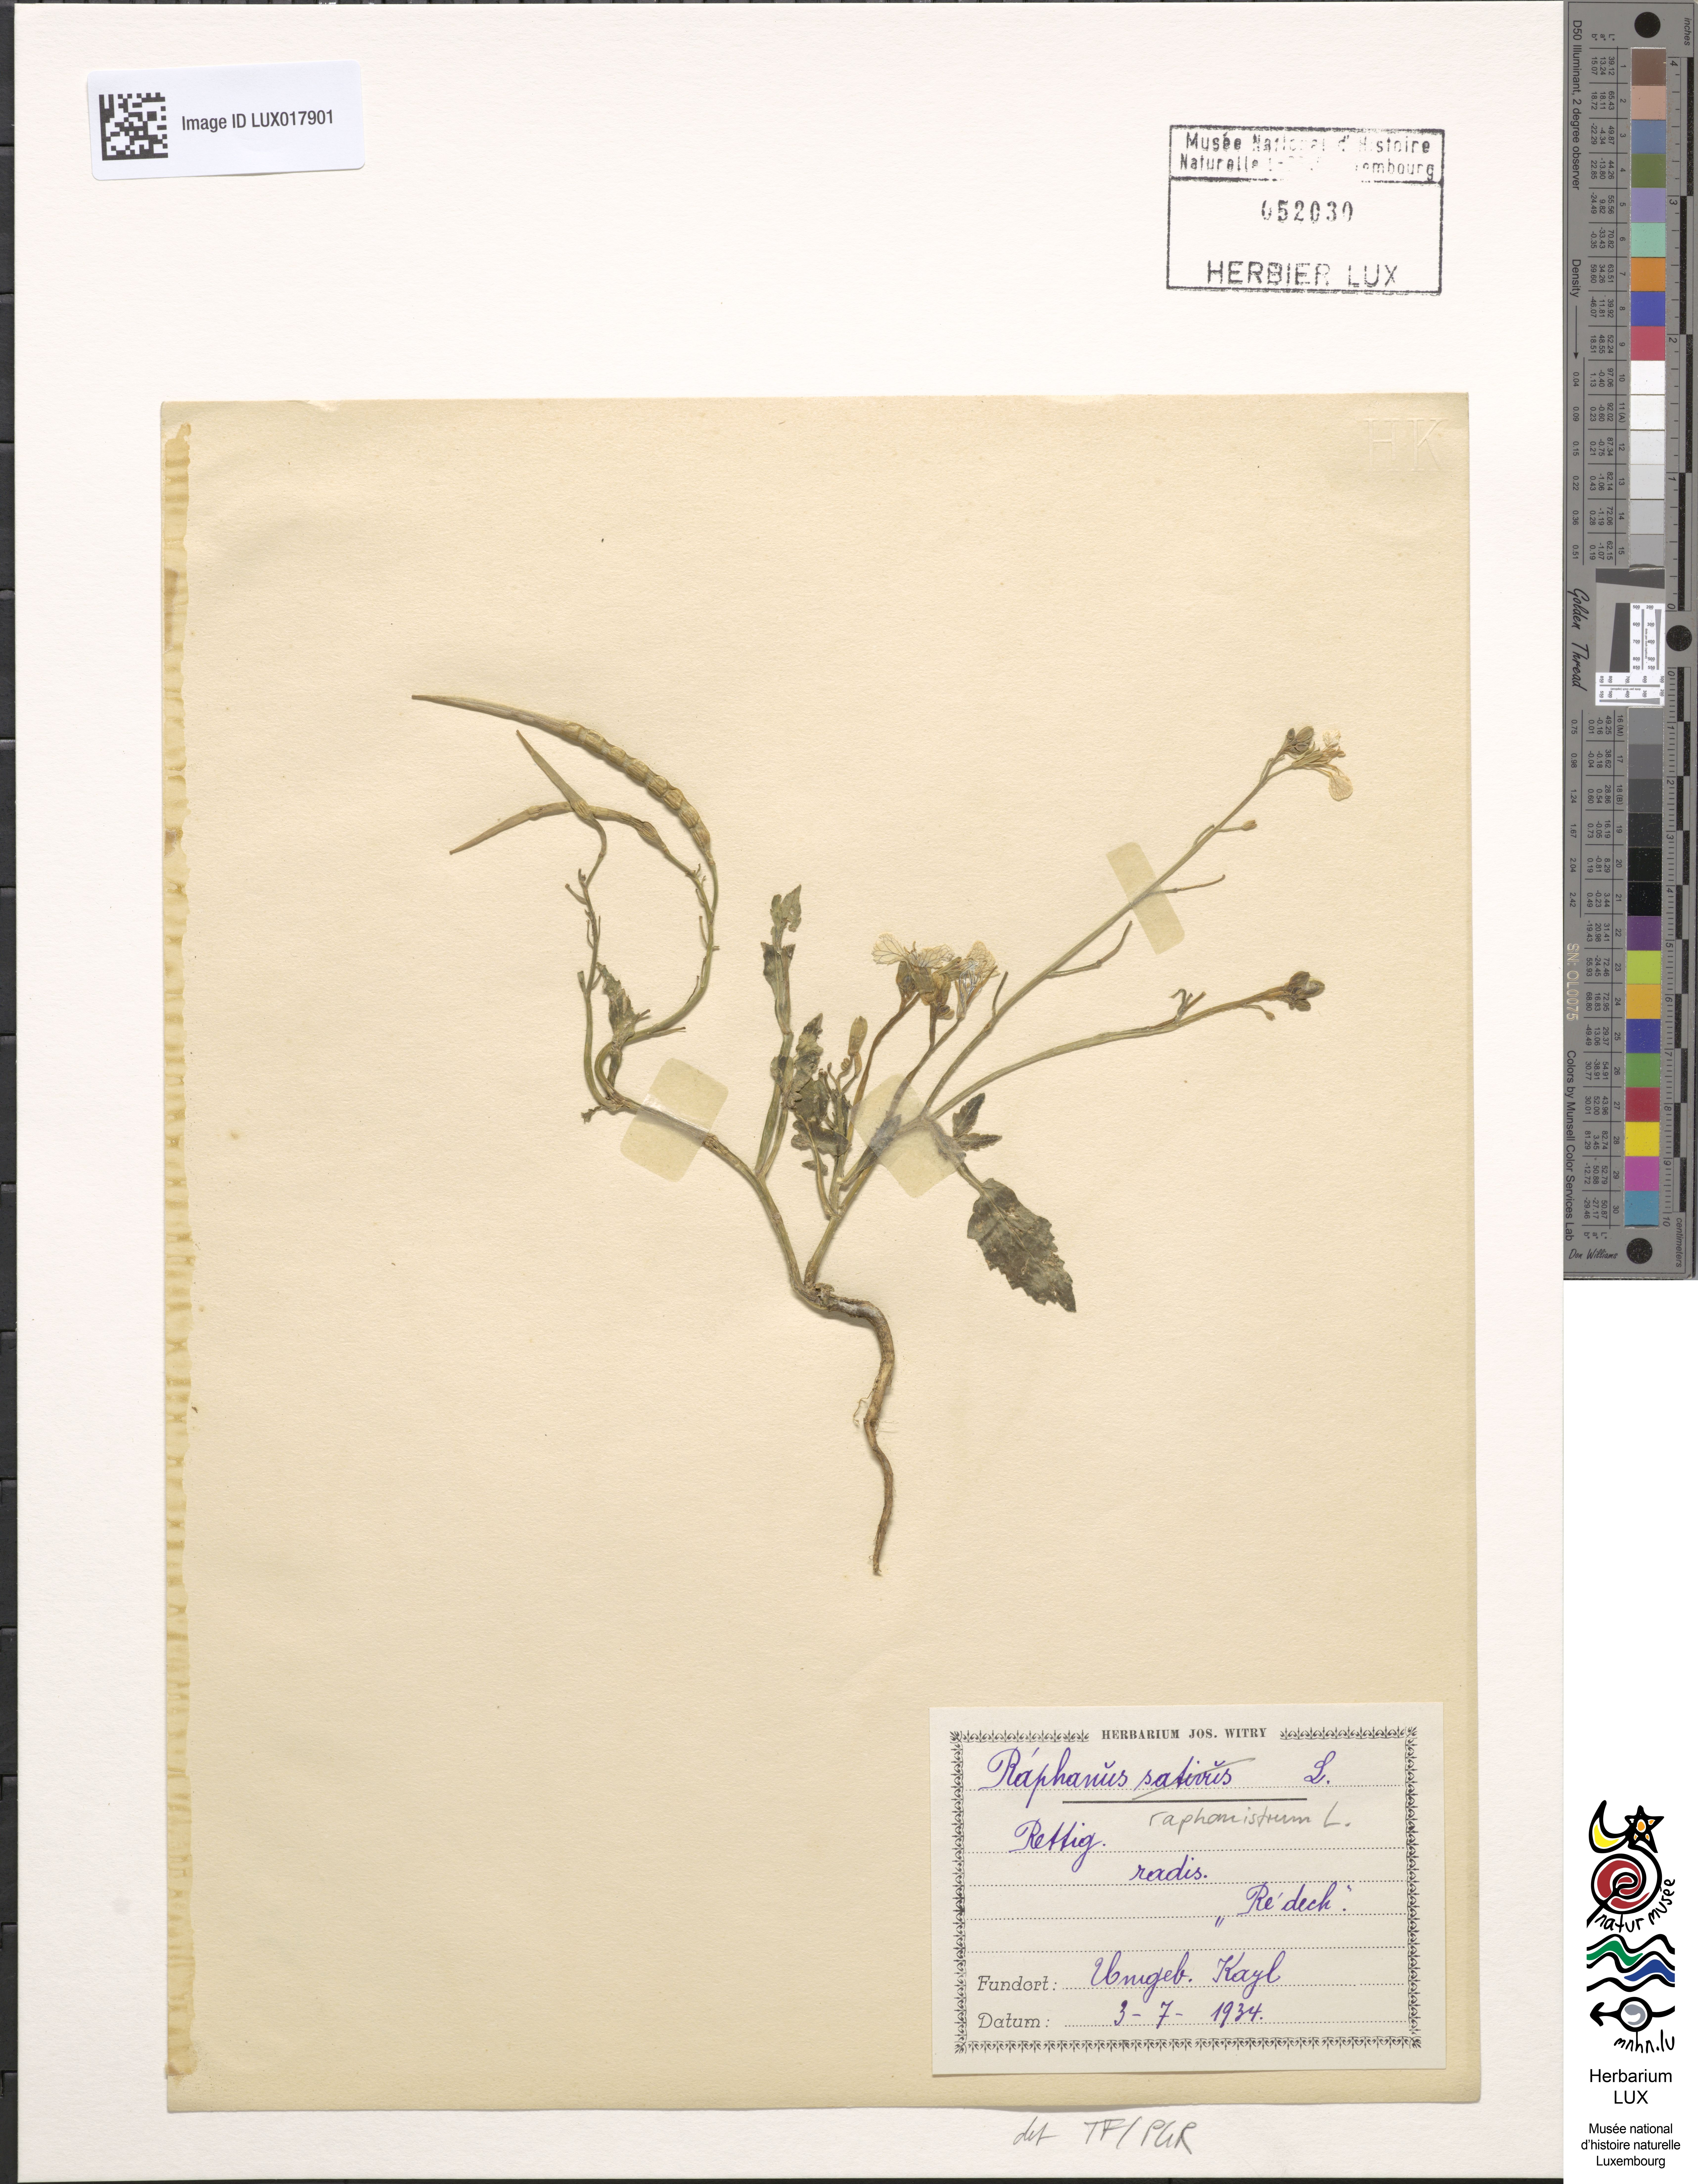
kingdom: Plantae
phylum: Tracheophyta
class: Magnoliopsida
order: Brassicales
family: Brassicaceae
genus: Raphanus
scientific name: Raphanus raphanistrum
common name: Wild radish
